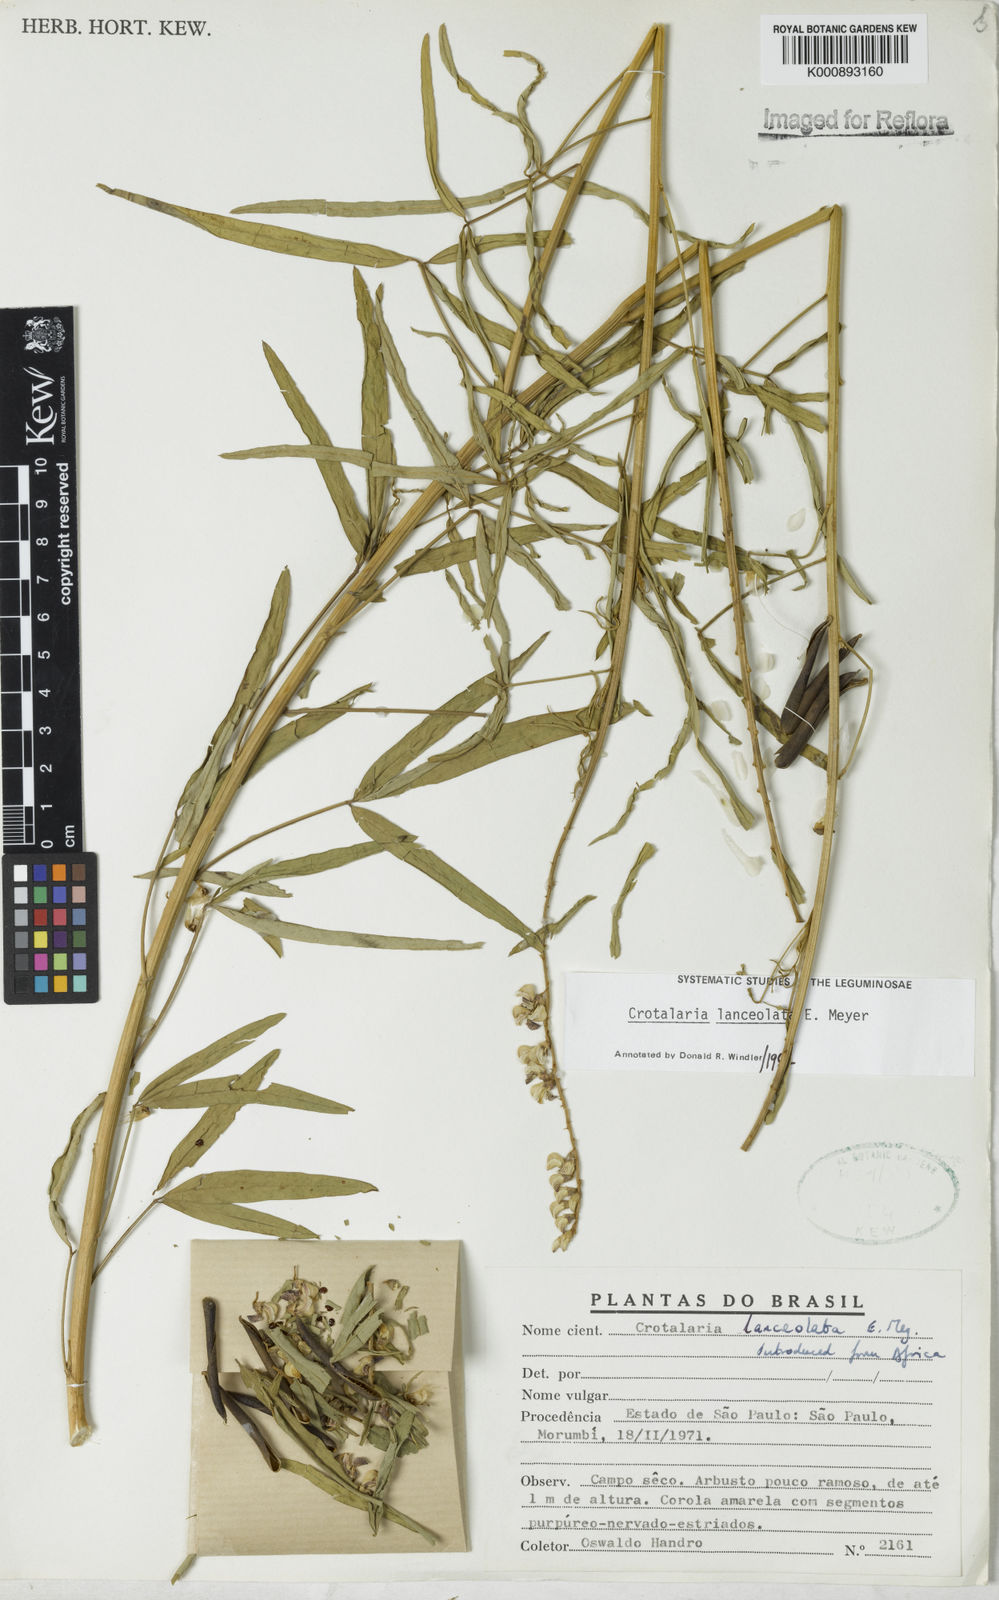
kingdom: Plantae
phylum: Tracheophyta
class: Magnoliopsida
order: Fabales
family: Fabaceae
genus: Crotalaria
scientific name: Crotalaria lanceolata
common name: Lanceleaf rattlebox
